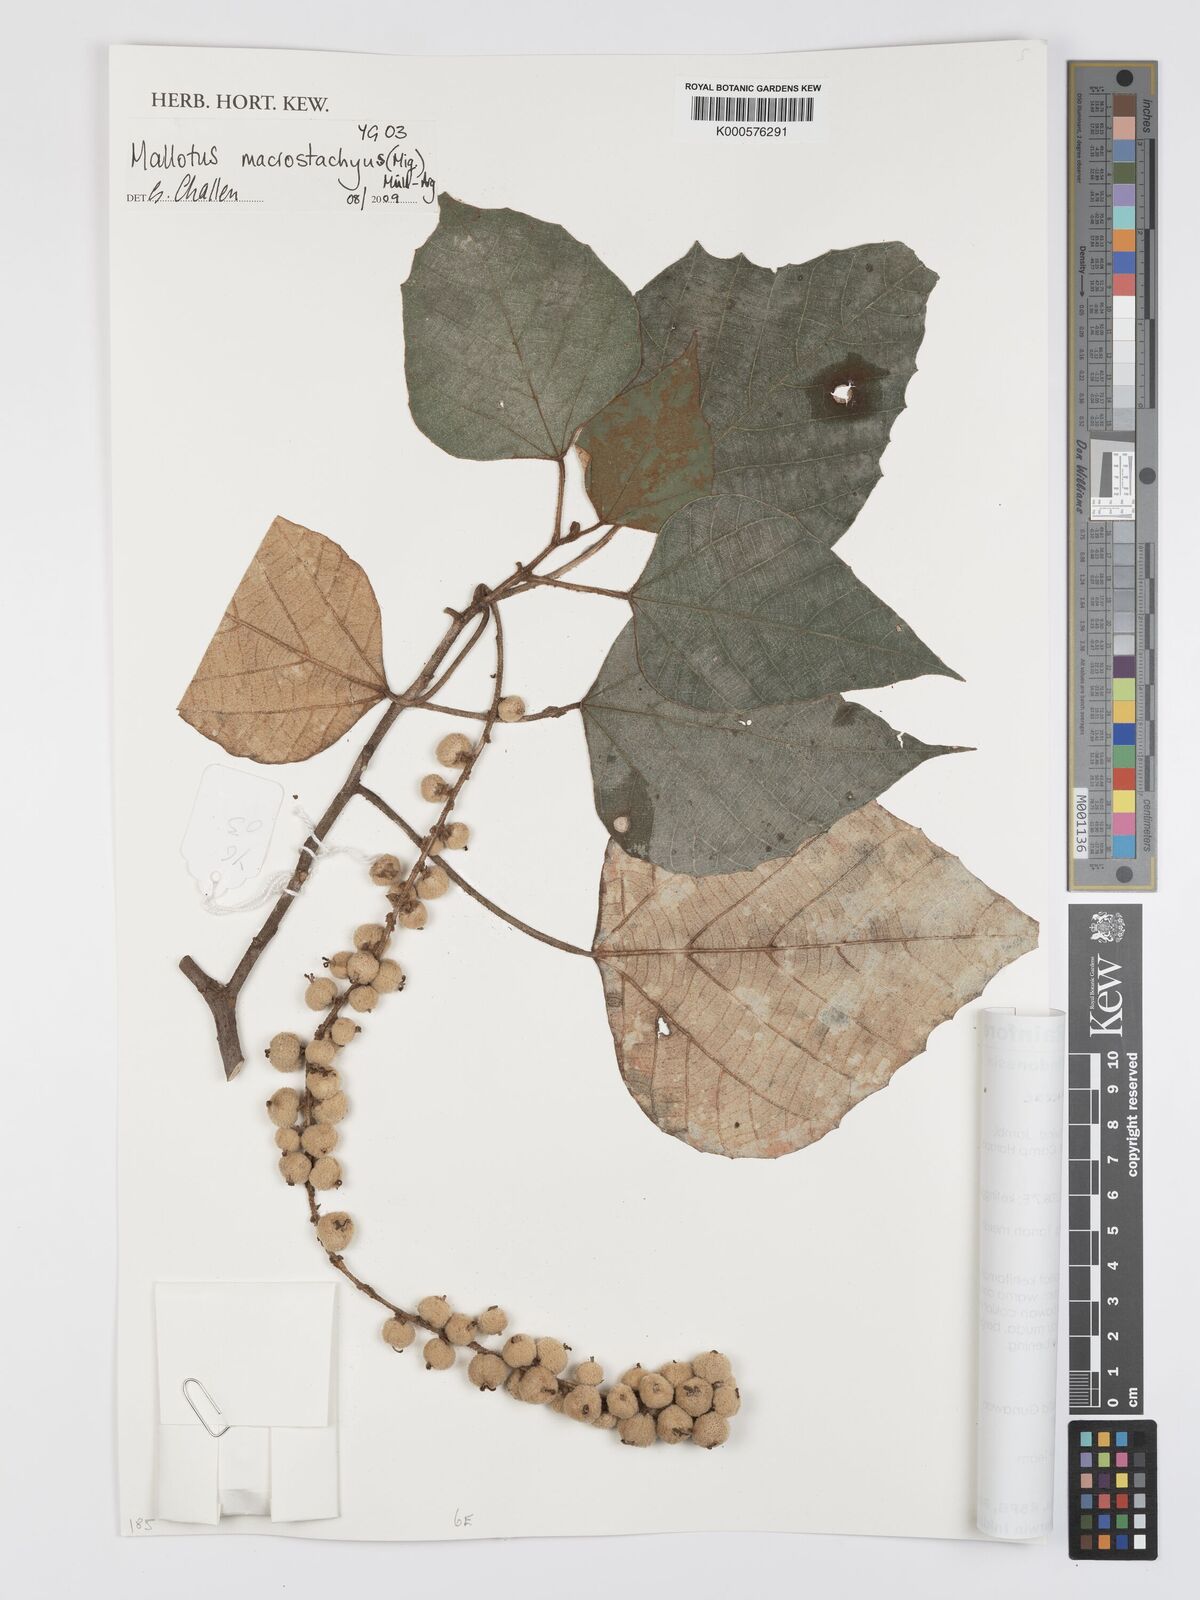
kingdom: Plantae
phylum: Tracheophyta
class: Magnoliopsida
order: Malpighiales
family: Euphorbiaceae
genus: Mallotus
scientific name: Mallotus
